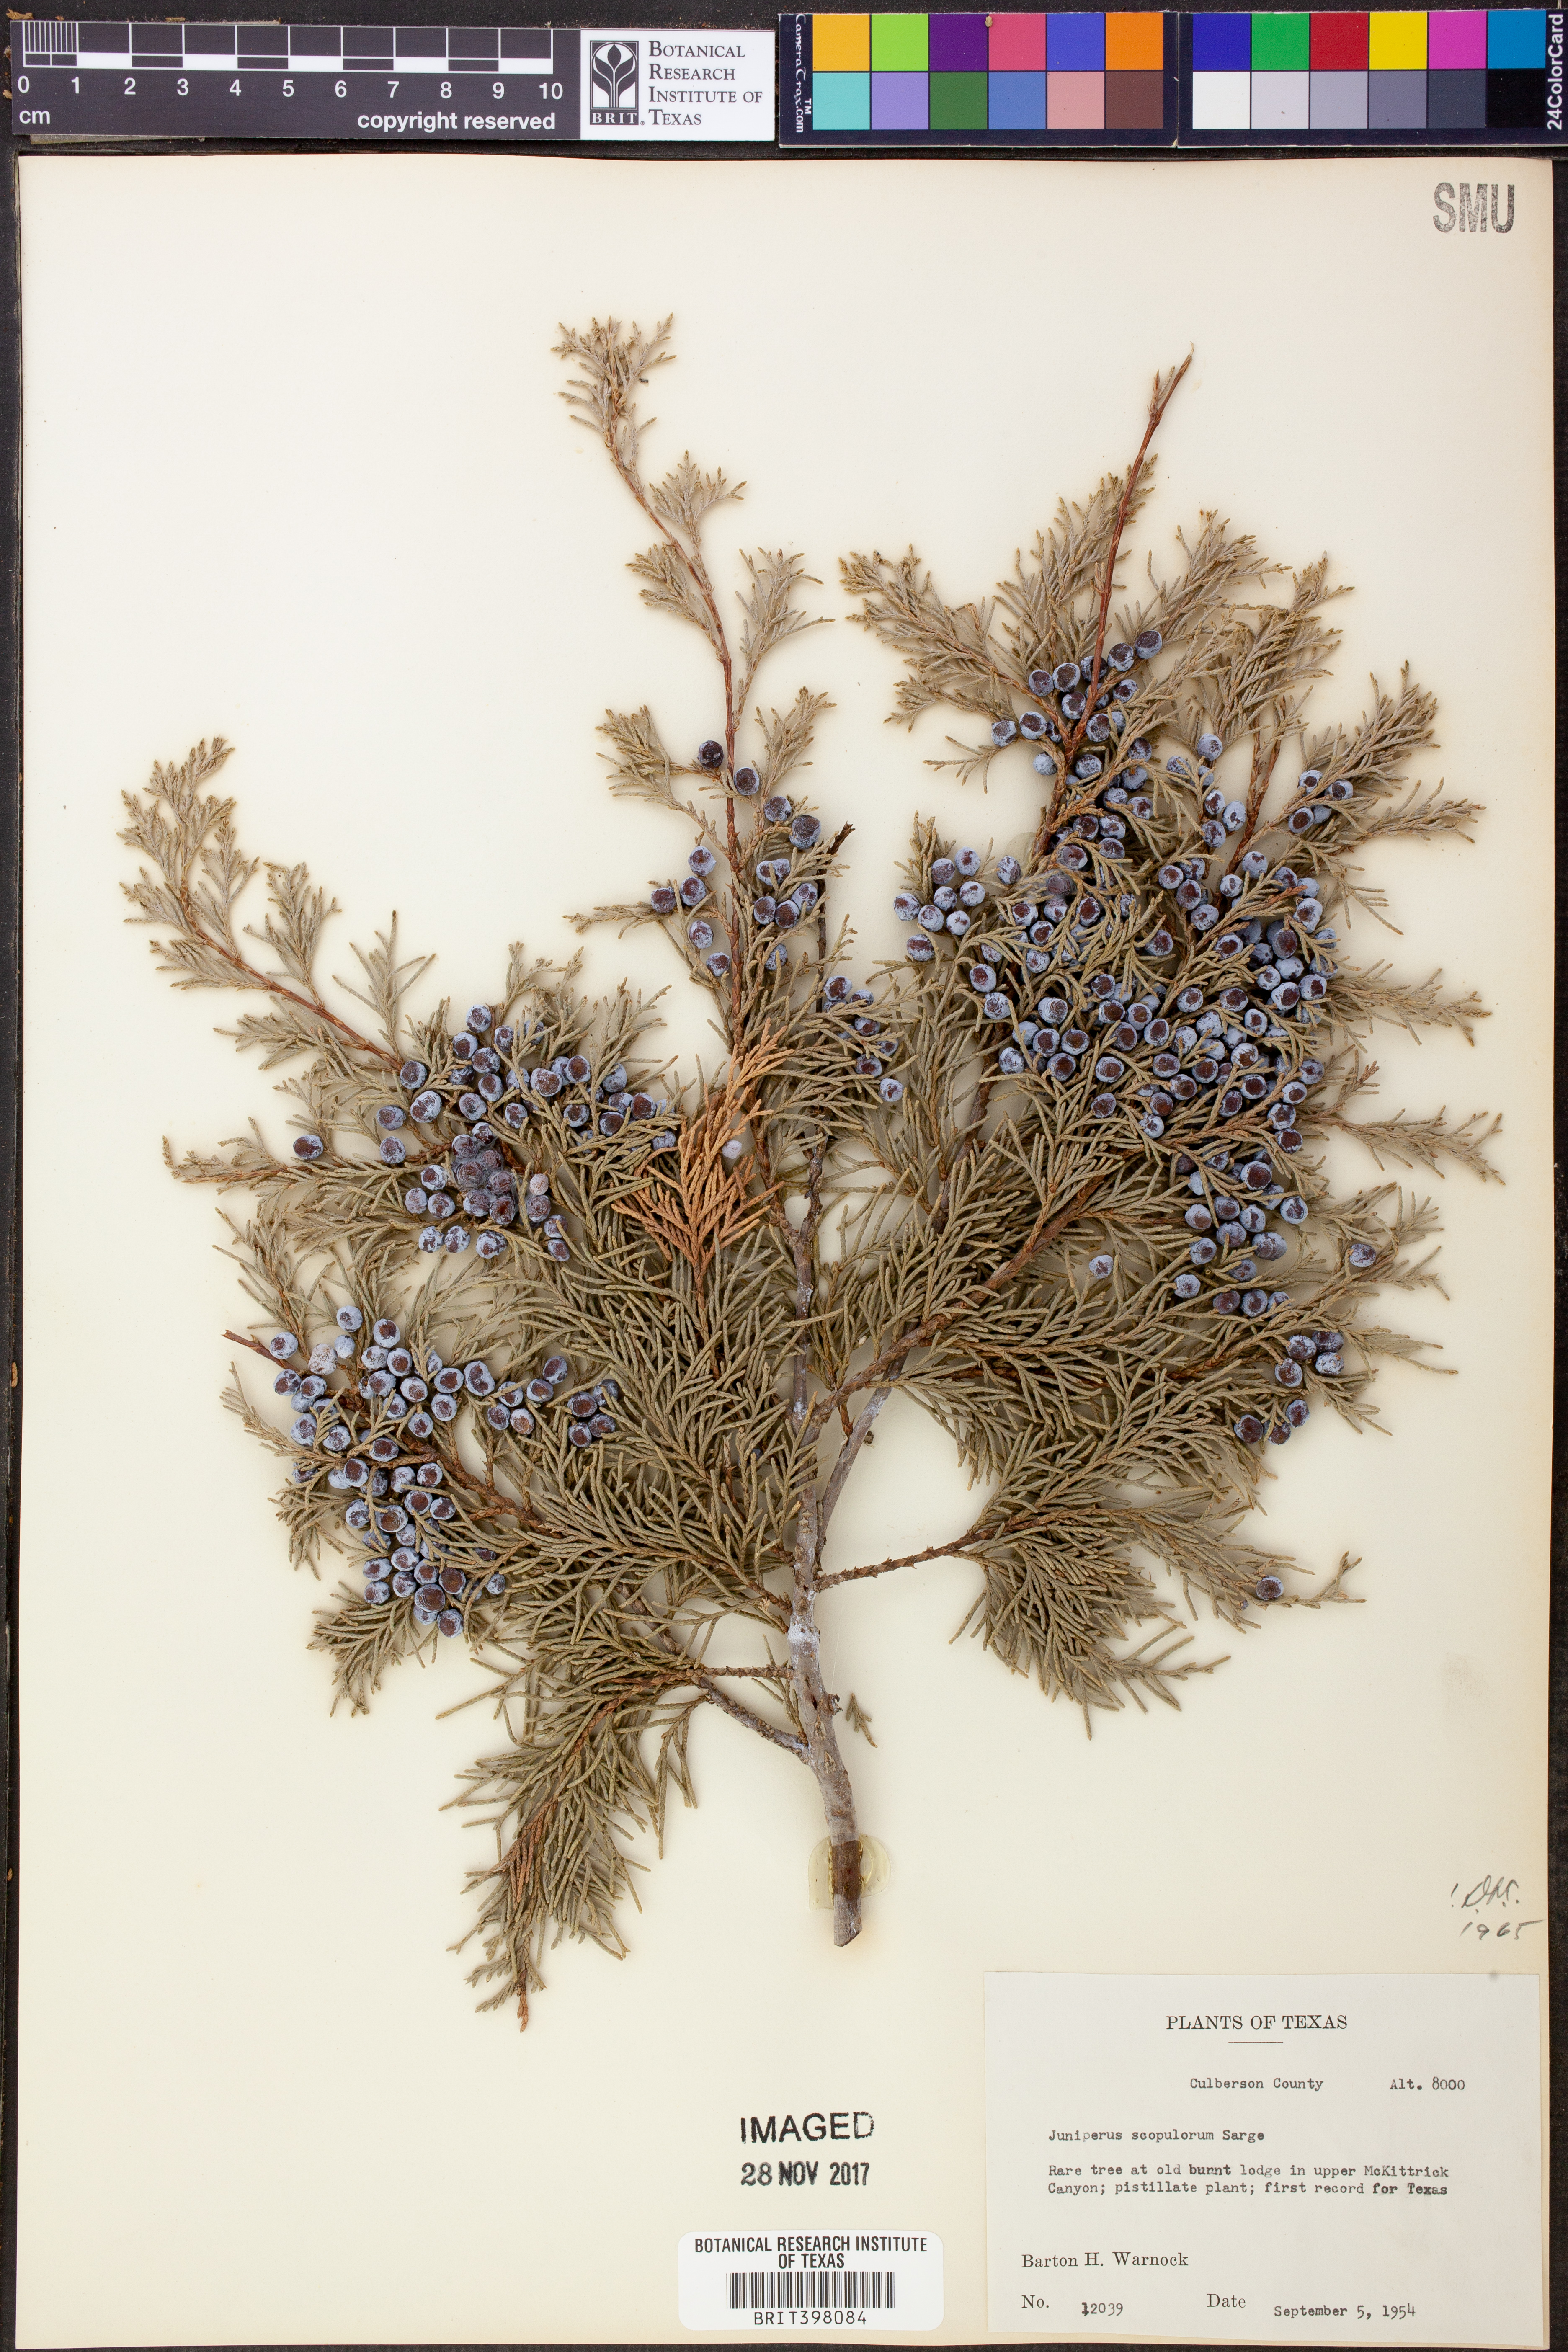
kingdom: Plantae
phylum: Tracheophyta
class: Pinopsida
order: Pinales
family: Cupressaceae
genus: Juniperus
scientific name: Juniperus scopulorum
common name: Rocky mountain juniper
